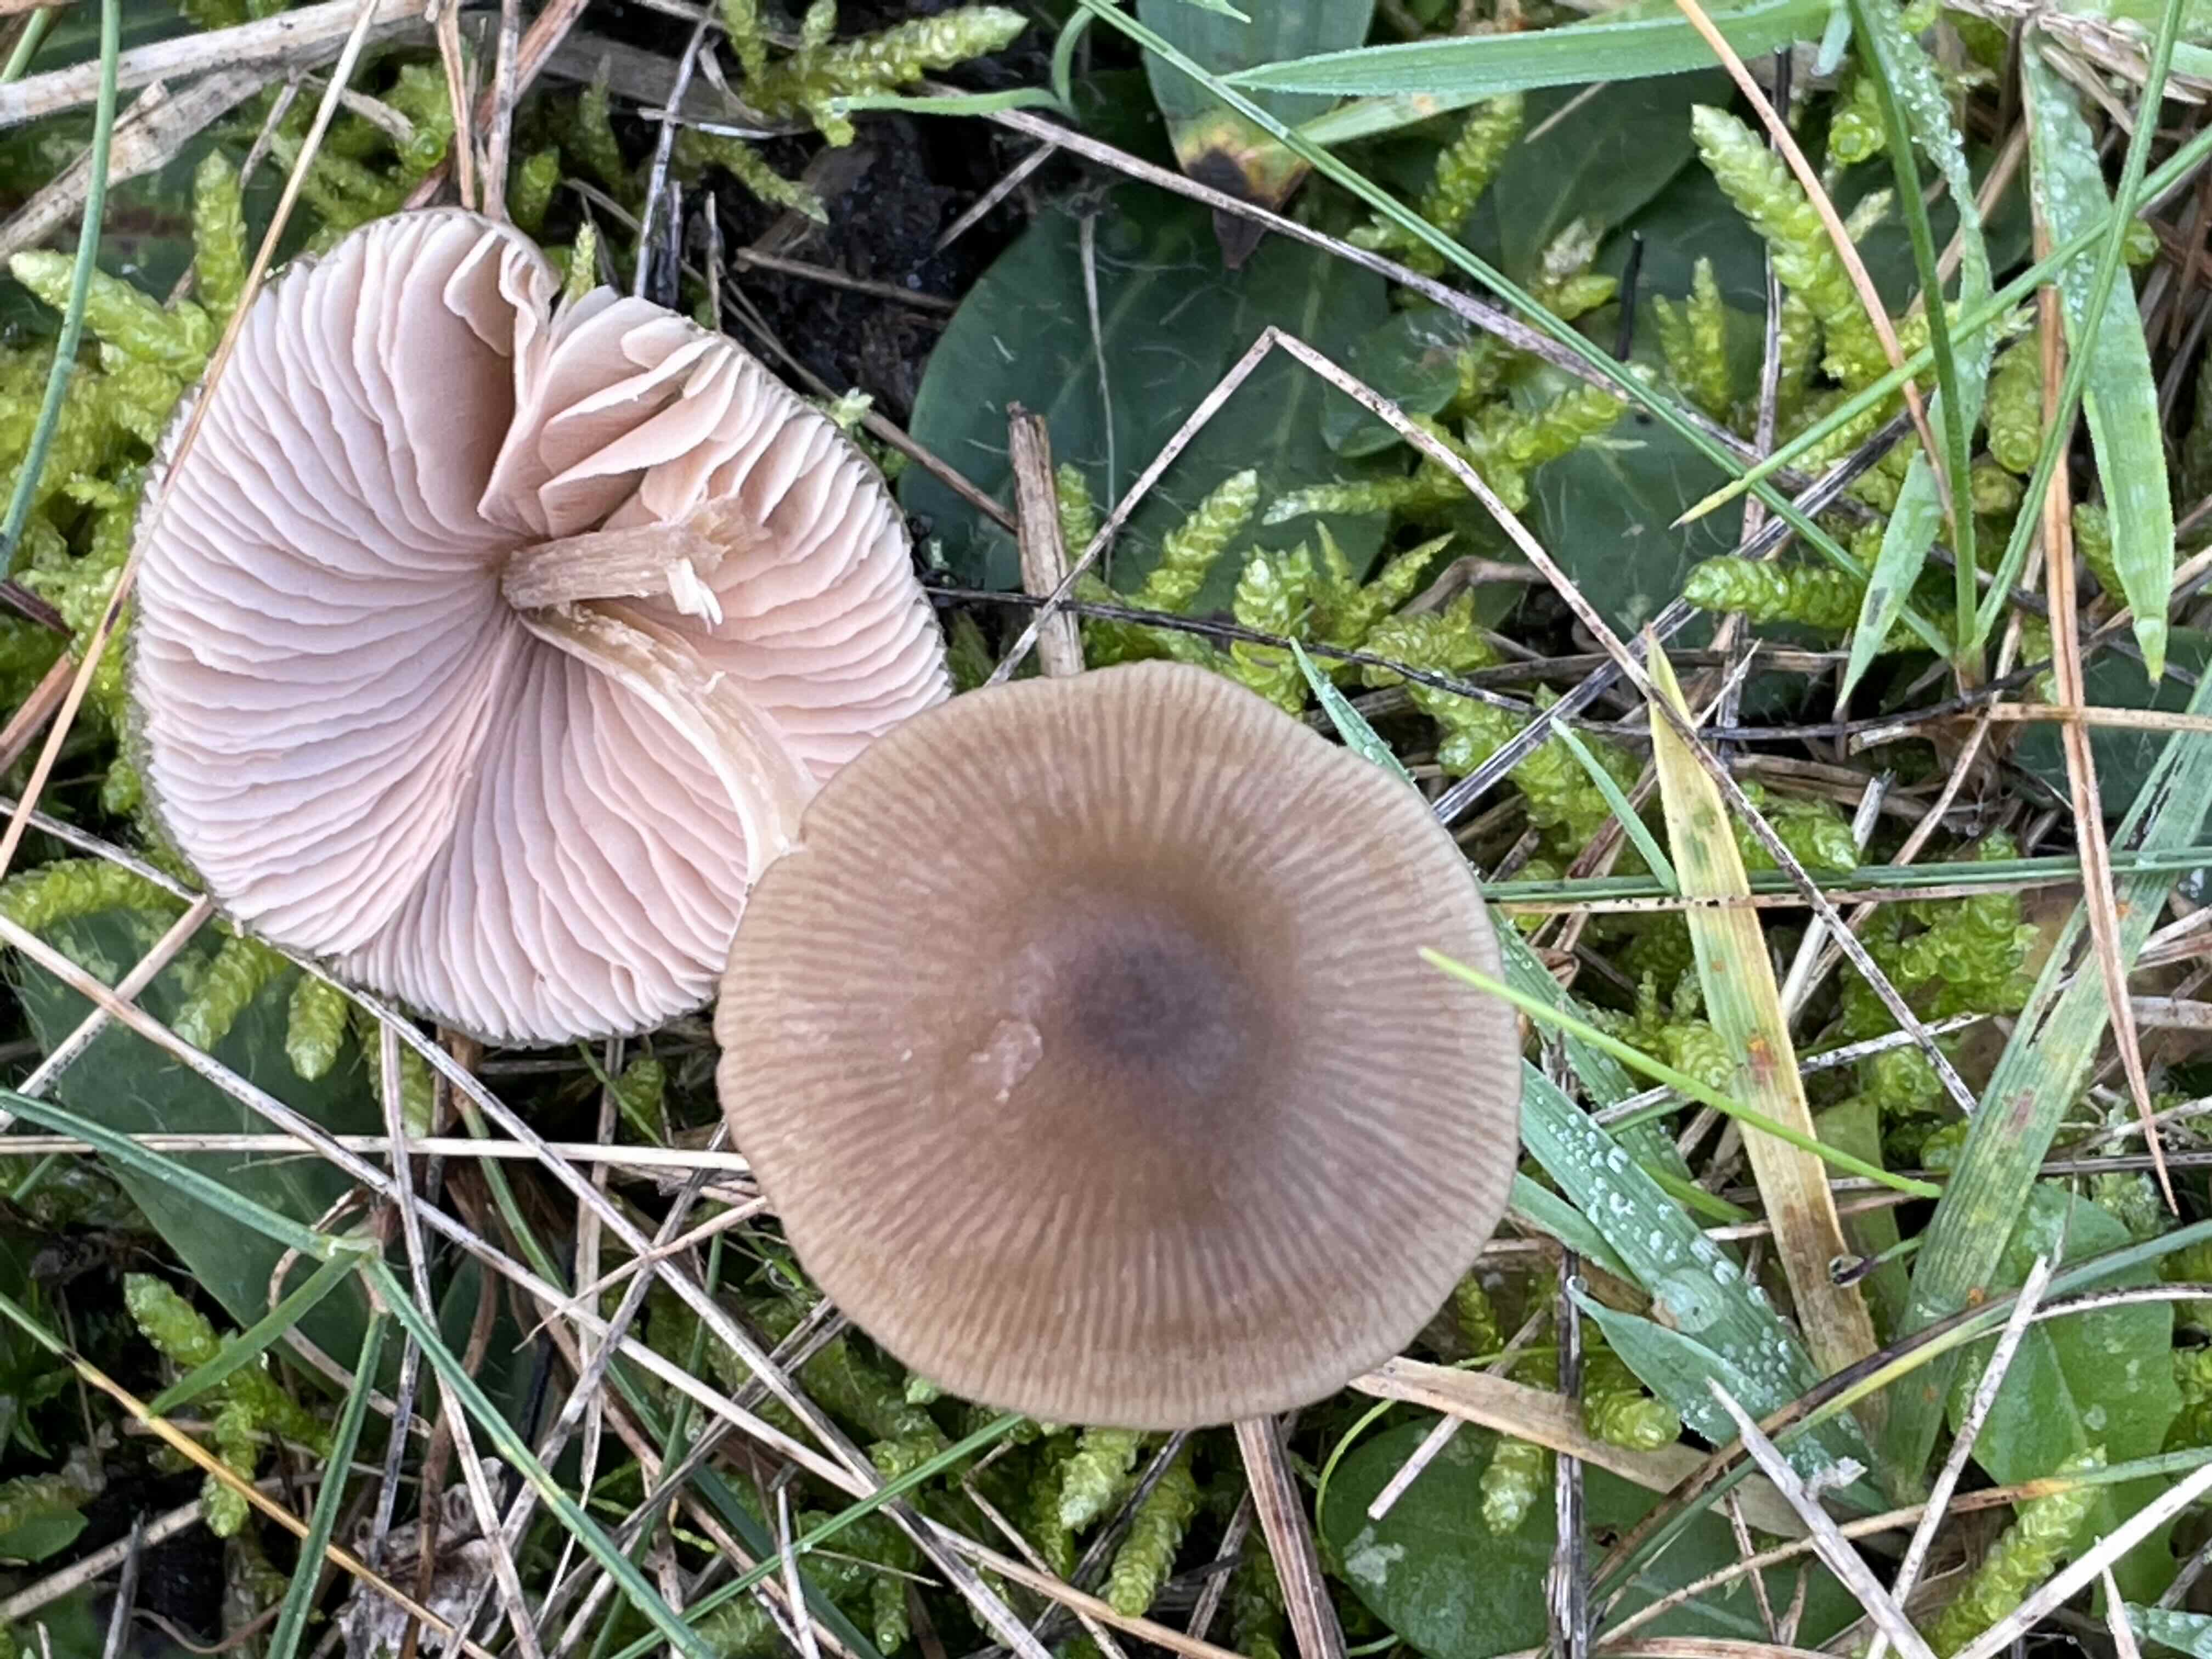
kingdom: Fungi
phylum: Basidiomycota
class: Agaricomycetes
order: Agaricales
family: Entolomataceae
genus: Entoloma
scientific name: Entoloma
